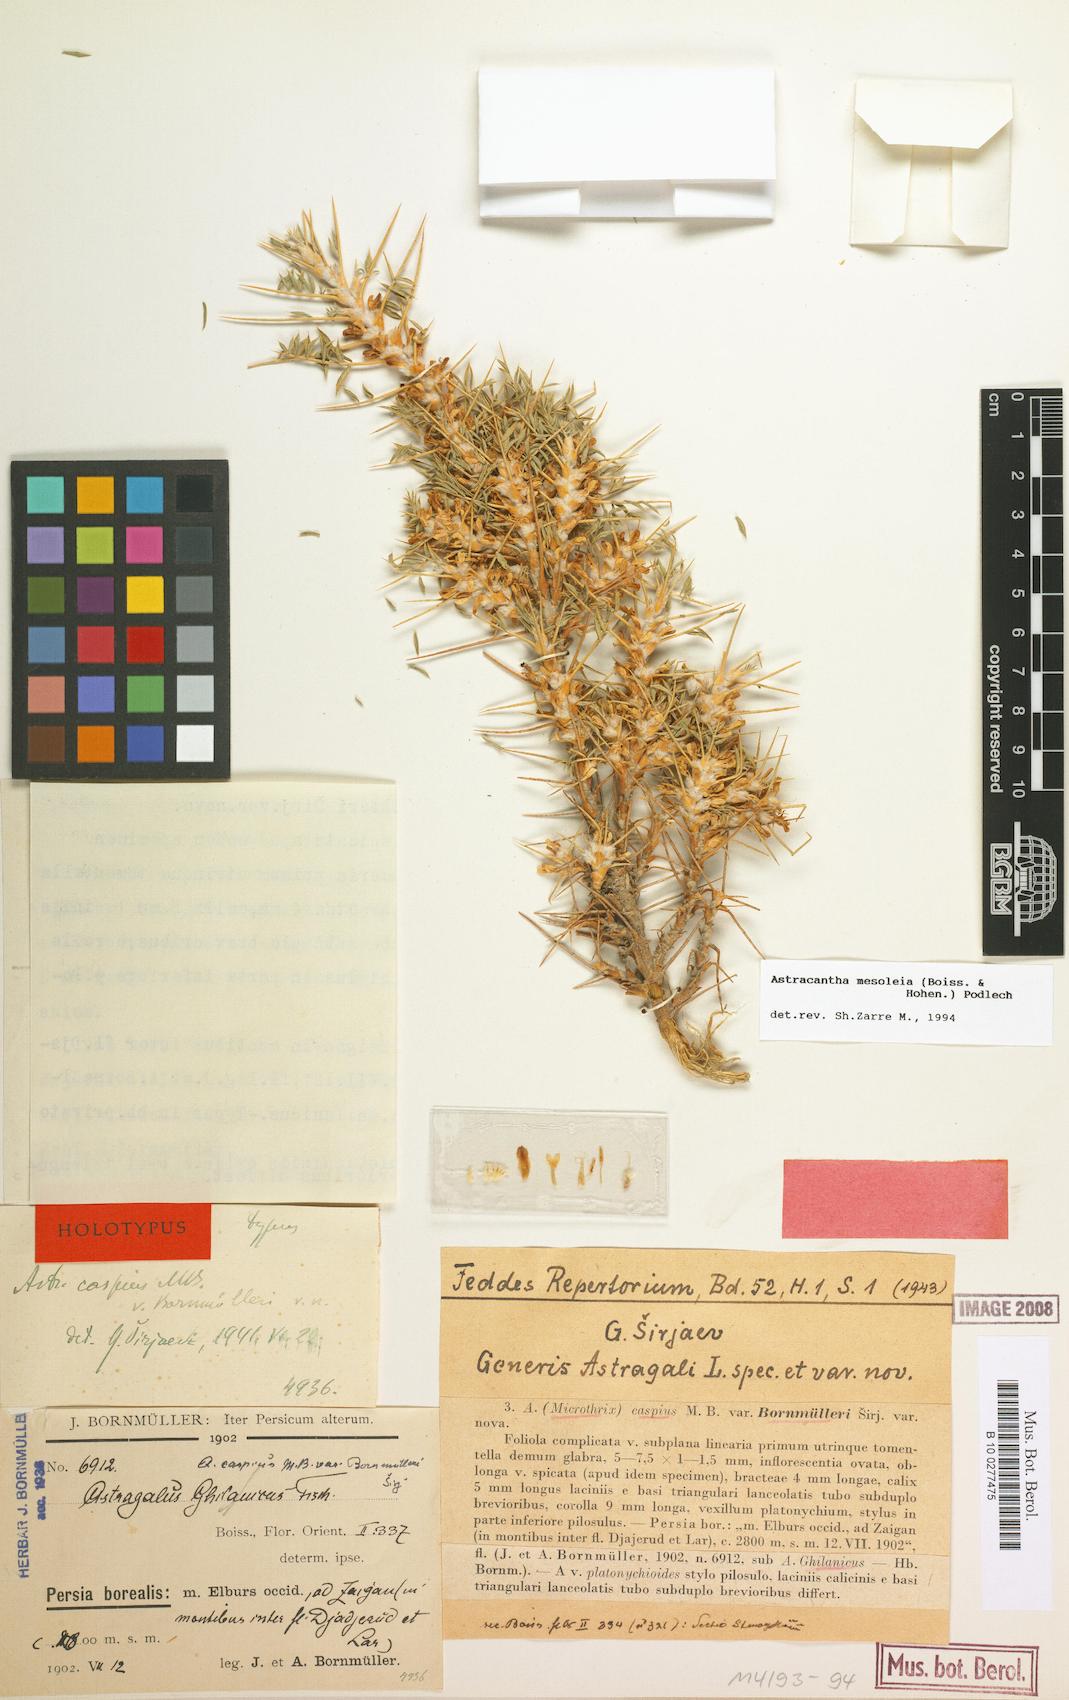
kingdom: Plantae
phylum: Tracheophyta
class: Magnoliopsida
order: Fabales
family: Fabaceae
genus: Astragalus
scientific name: Astragalus mesoleios
